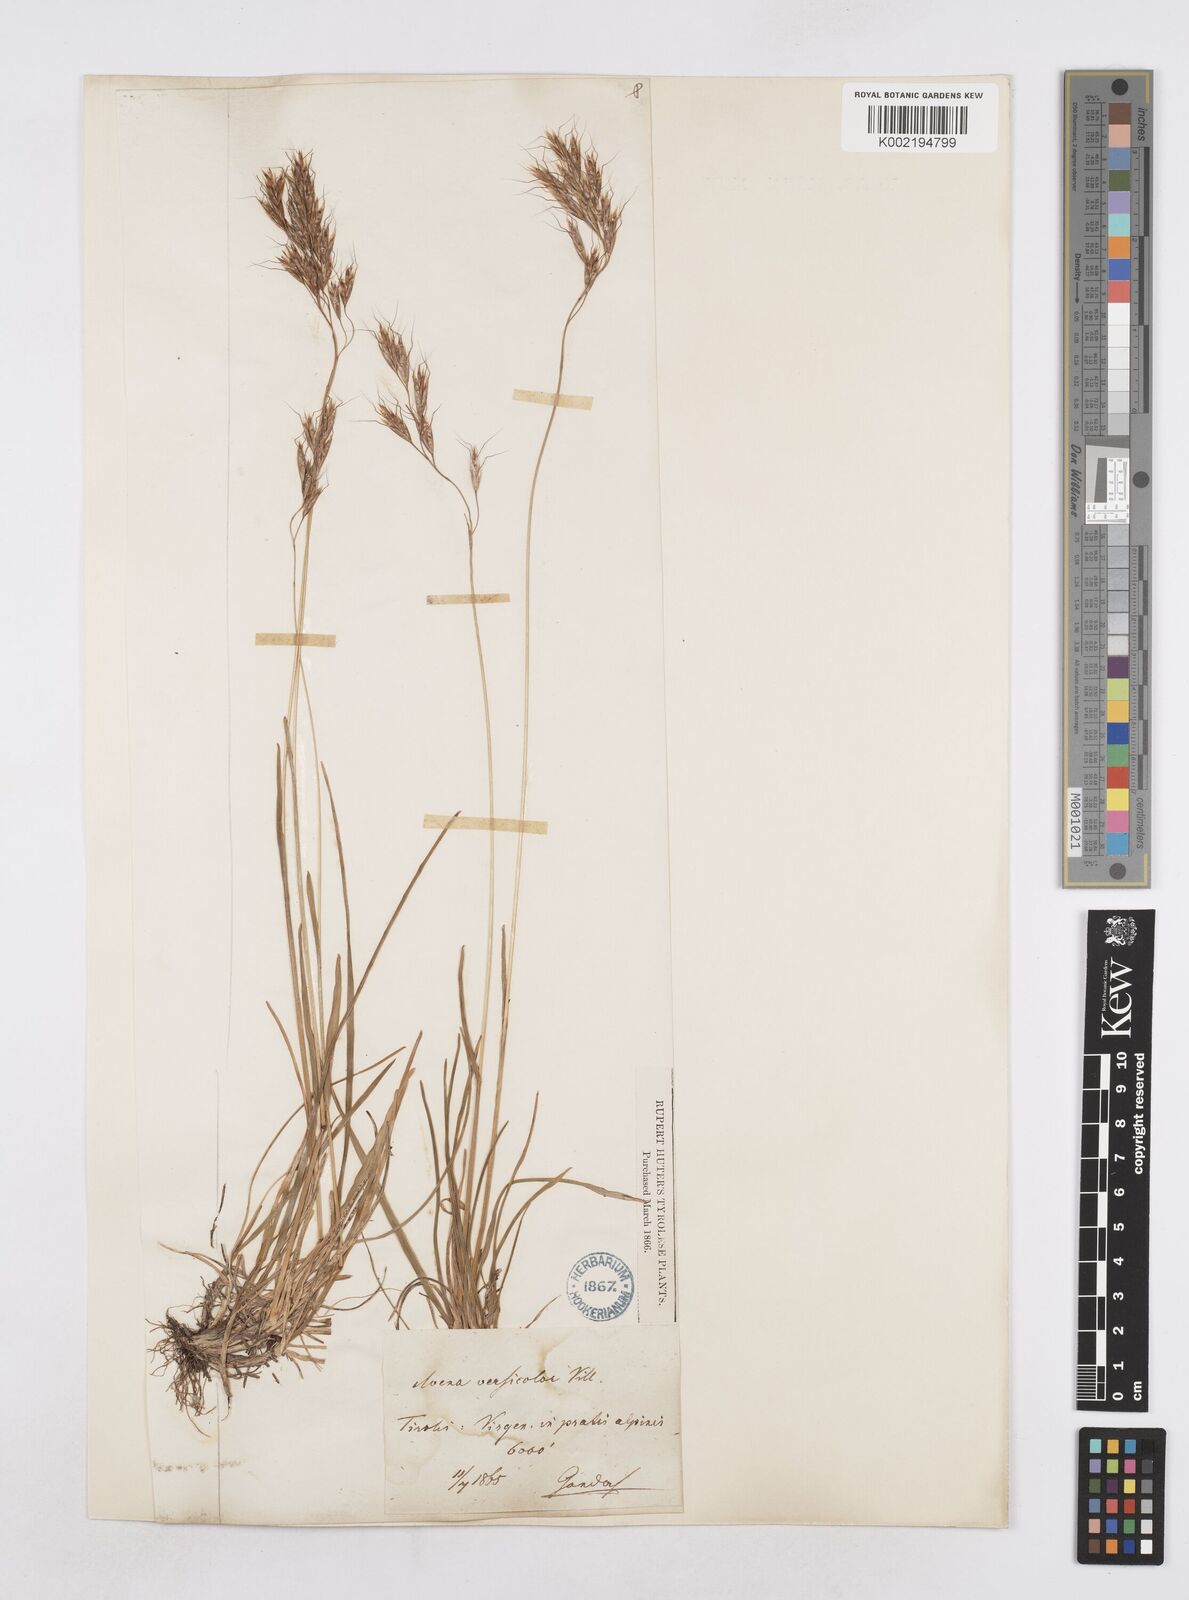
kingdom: Plantae
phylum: Tracheophyta
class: Liliopsida
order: Poales
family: Poaceae
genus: Helictochloa
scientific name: Helictochloa versicolor
